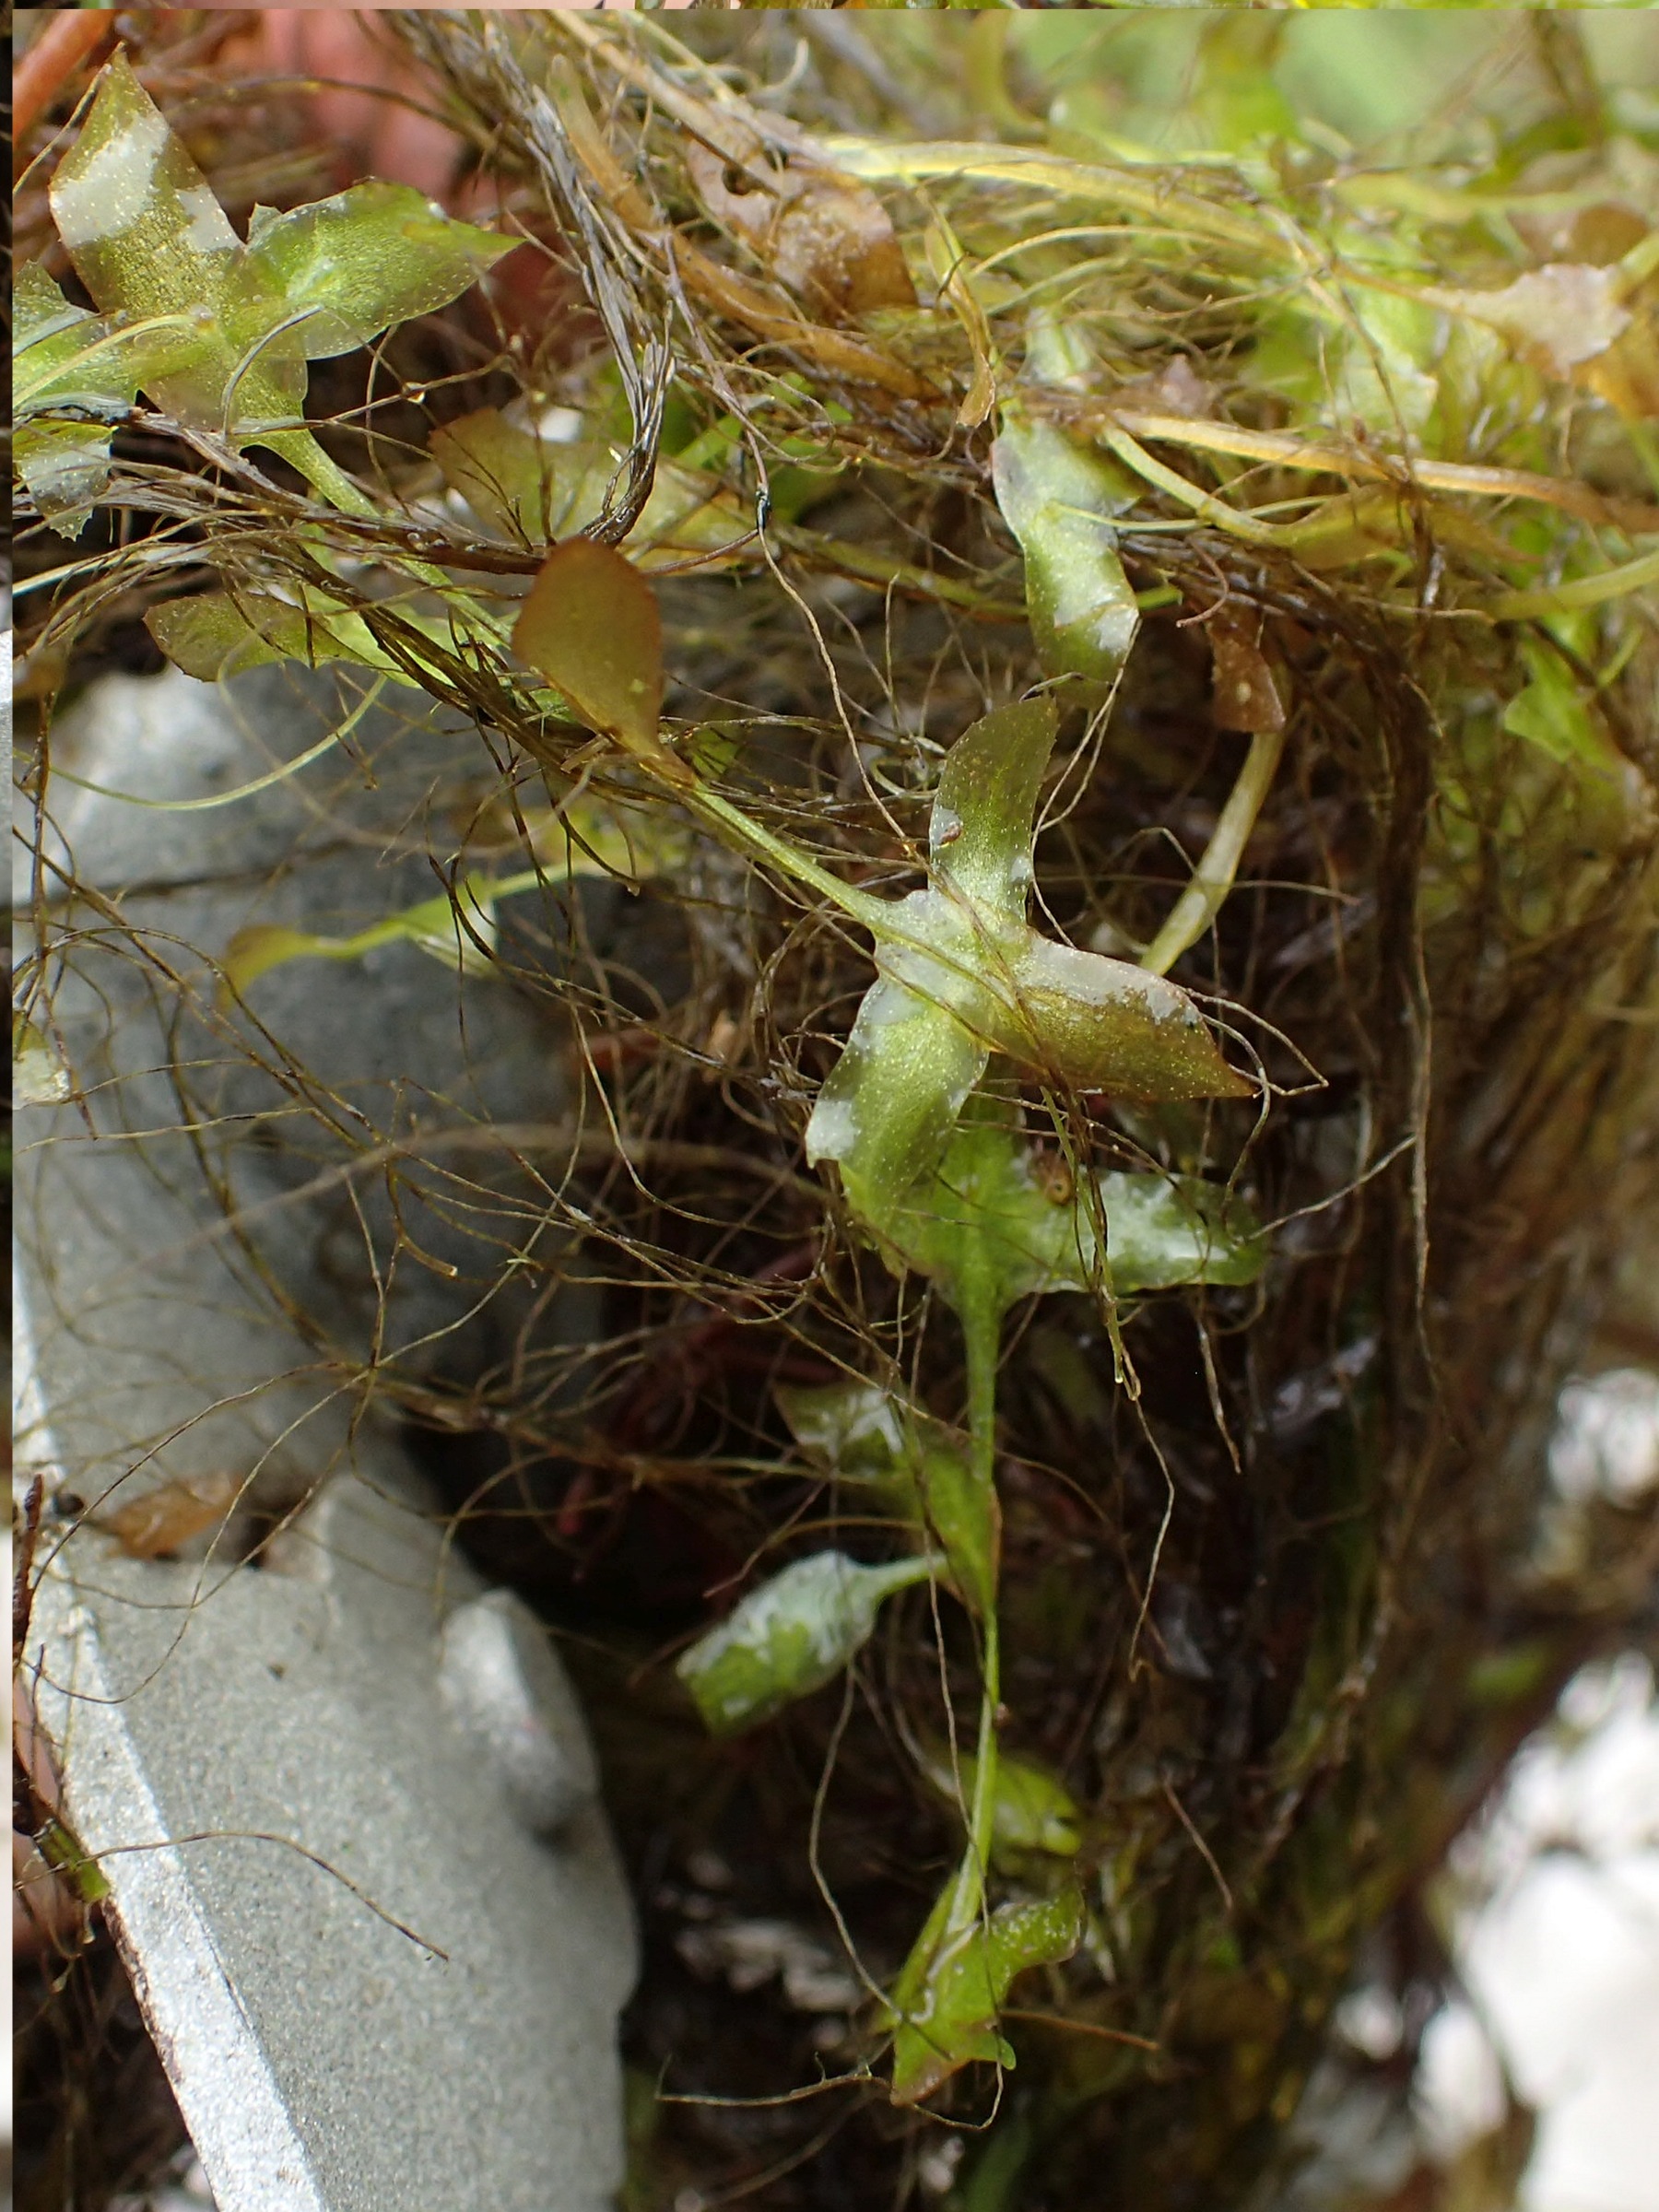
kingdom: Plantae
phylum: Tracheophyta
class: Liliopsida
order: Alismatales
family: Araceae
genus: Lemna
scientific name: Lemna trisulca
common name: Kors-andemad
